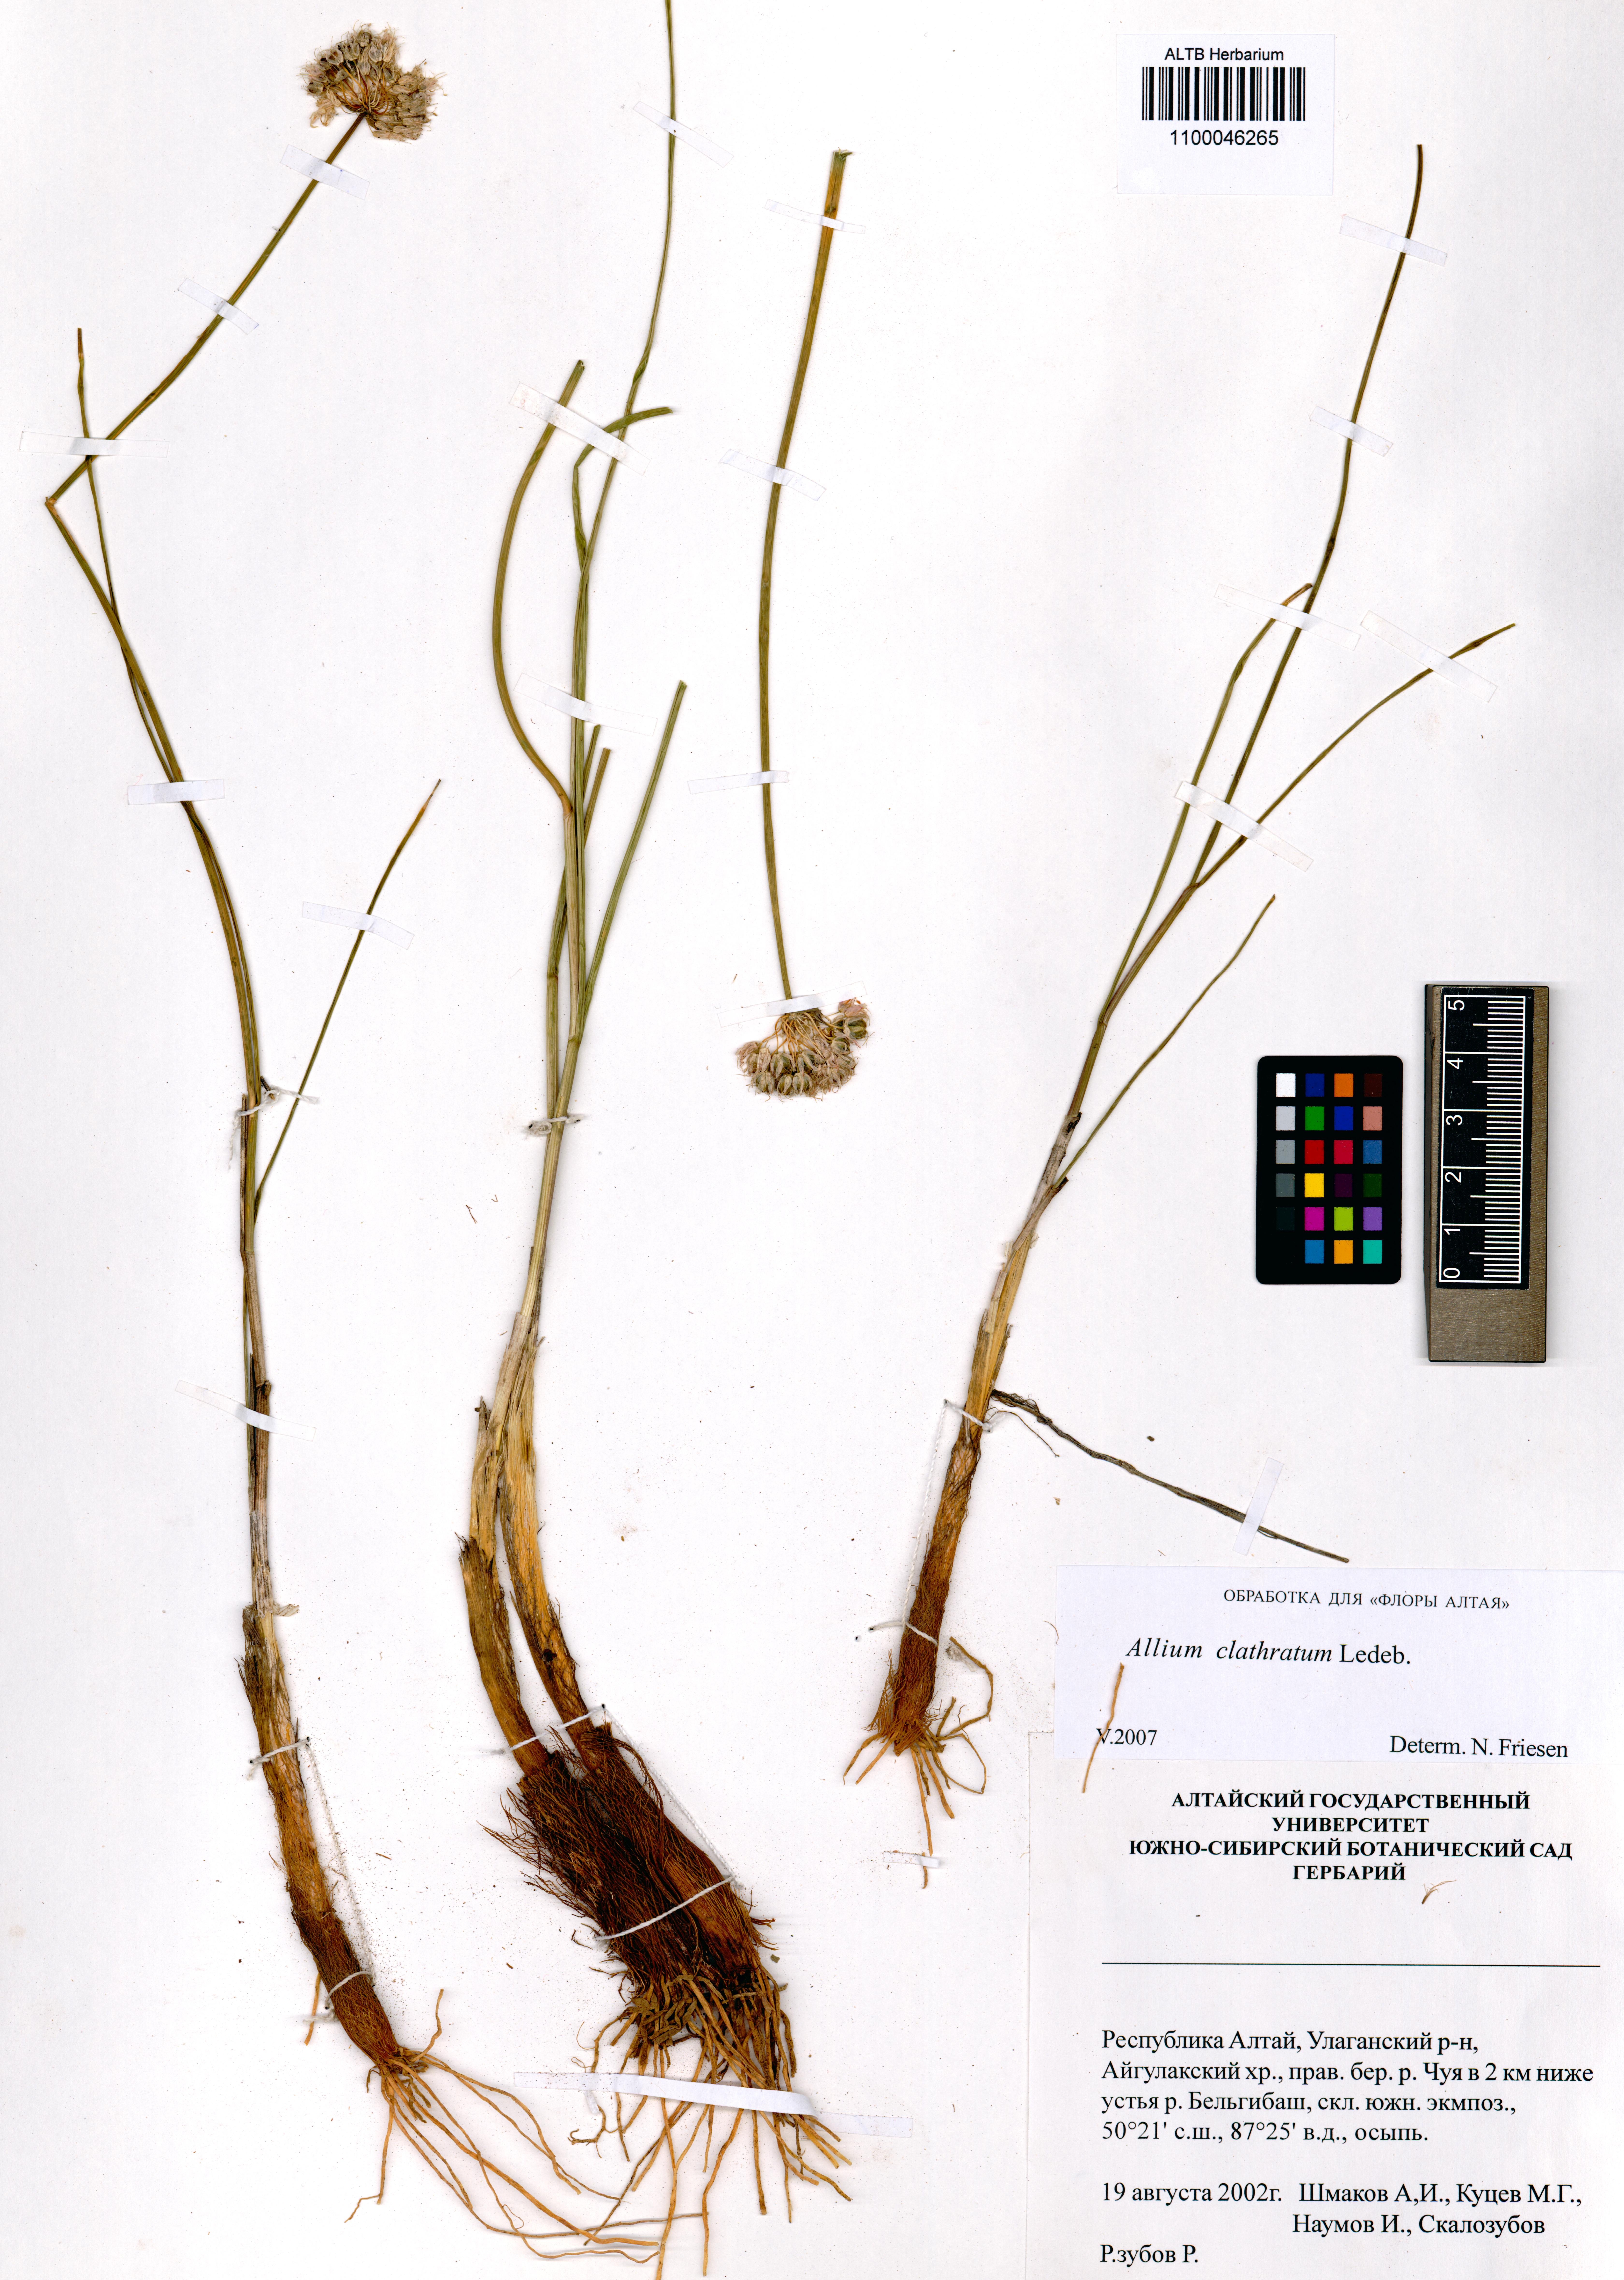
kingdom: Plantae
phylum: Tracheophyta
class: Liliopsida
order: Asparagales
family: Amaryllidaceae
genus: Allium
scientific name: Allium clathratum
